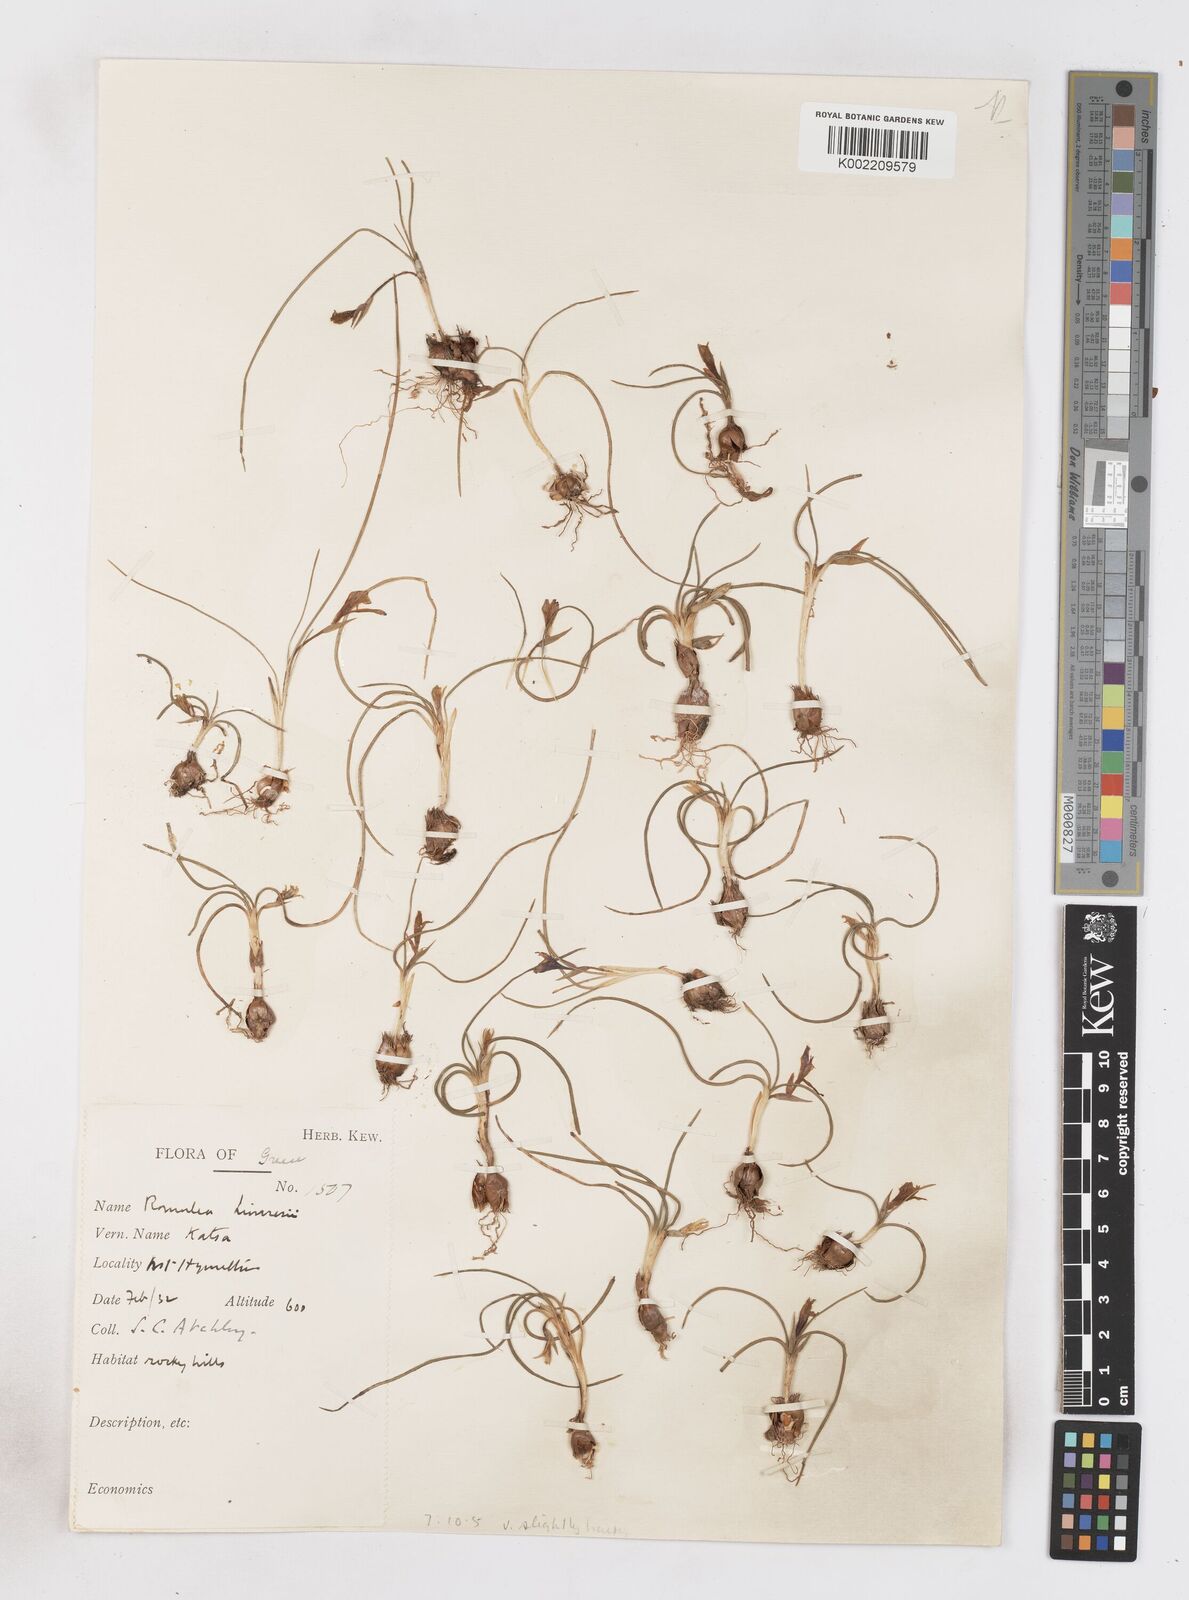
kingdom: Plantae
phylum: Tracheophyta
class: Liliopsida
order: Asparagales
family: Iridaceae
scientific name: Iridaceae
